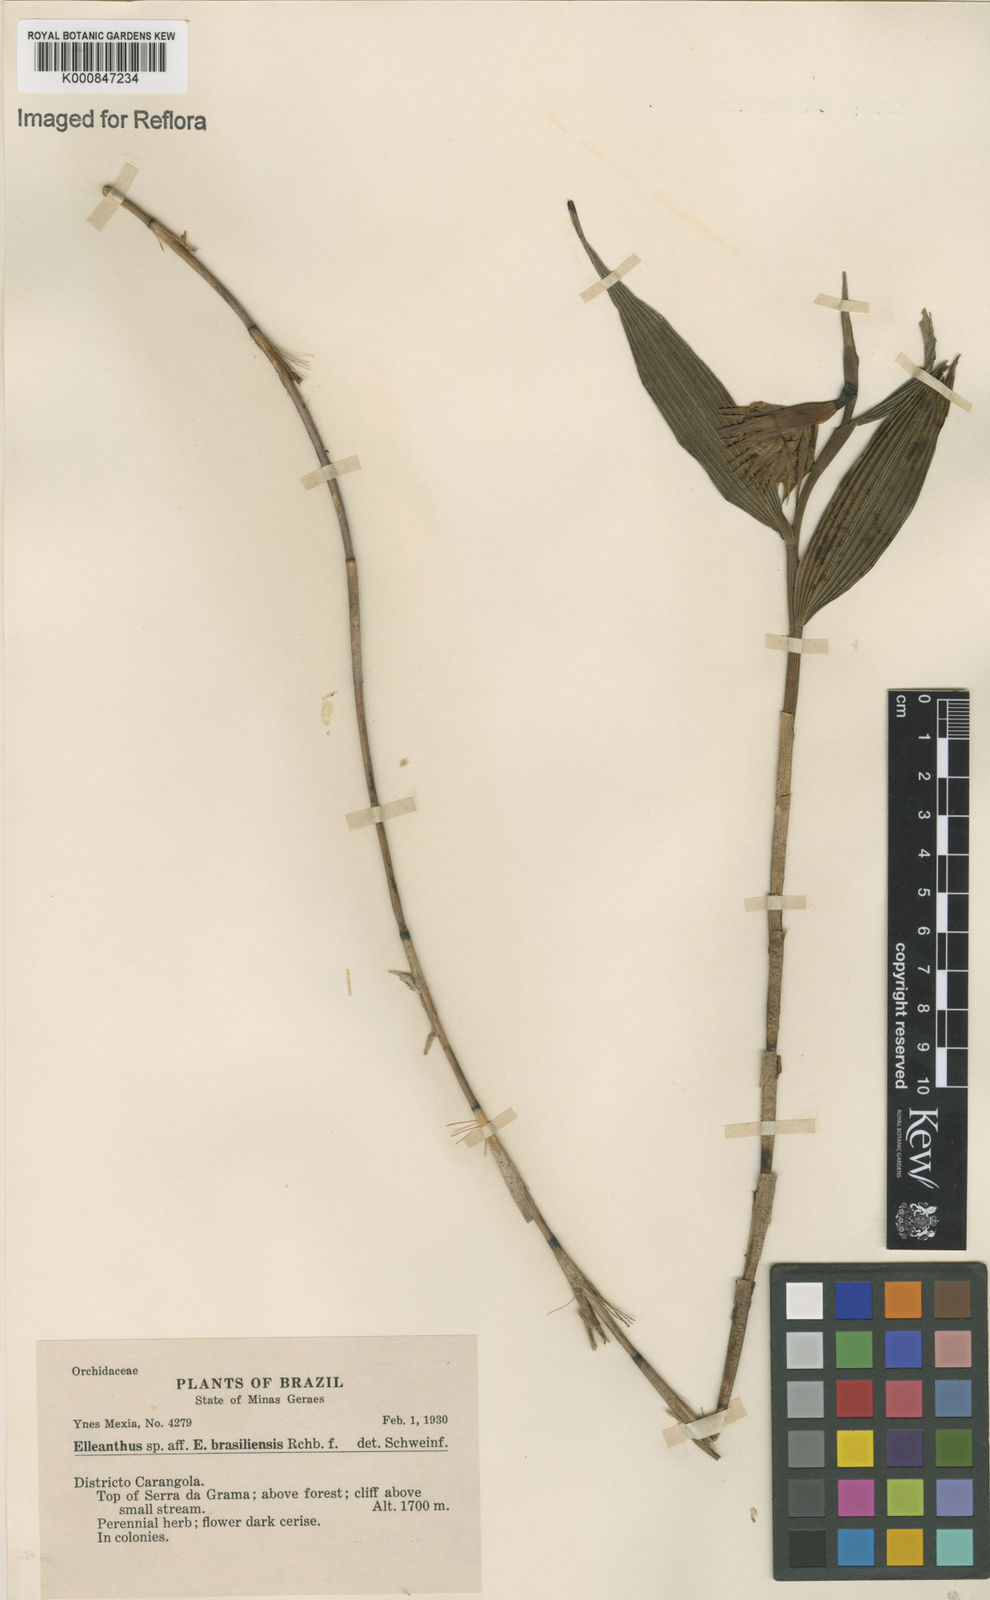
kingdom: Plantae
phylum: Tracheophyta
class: Liliopsida
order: Asparagales
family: Orchidaceae
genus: Elleanthus
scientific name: Elleanthus brasiliensis
